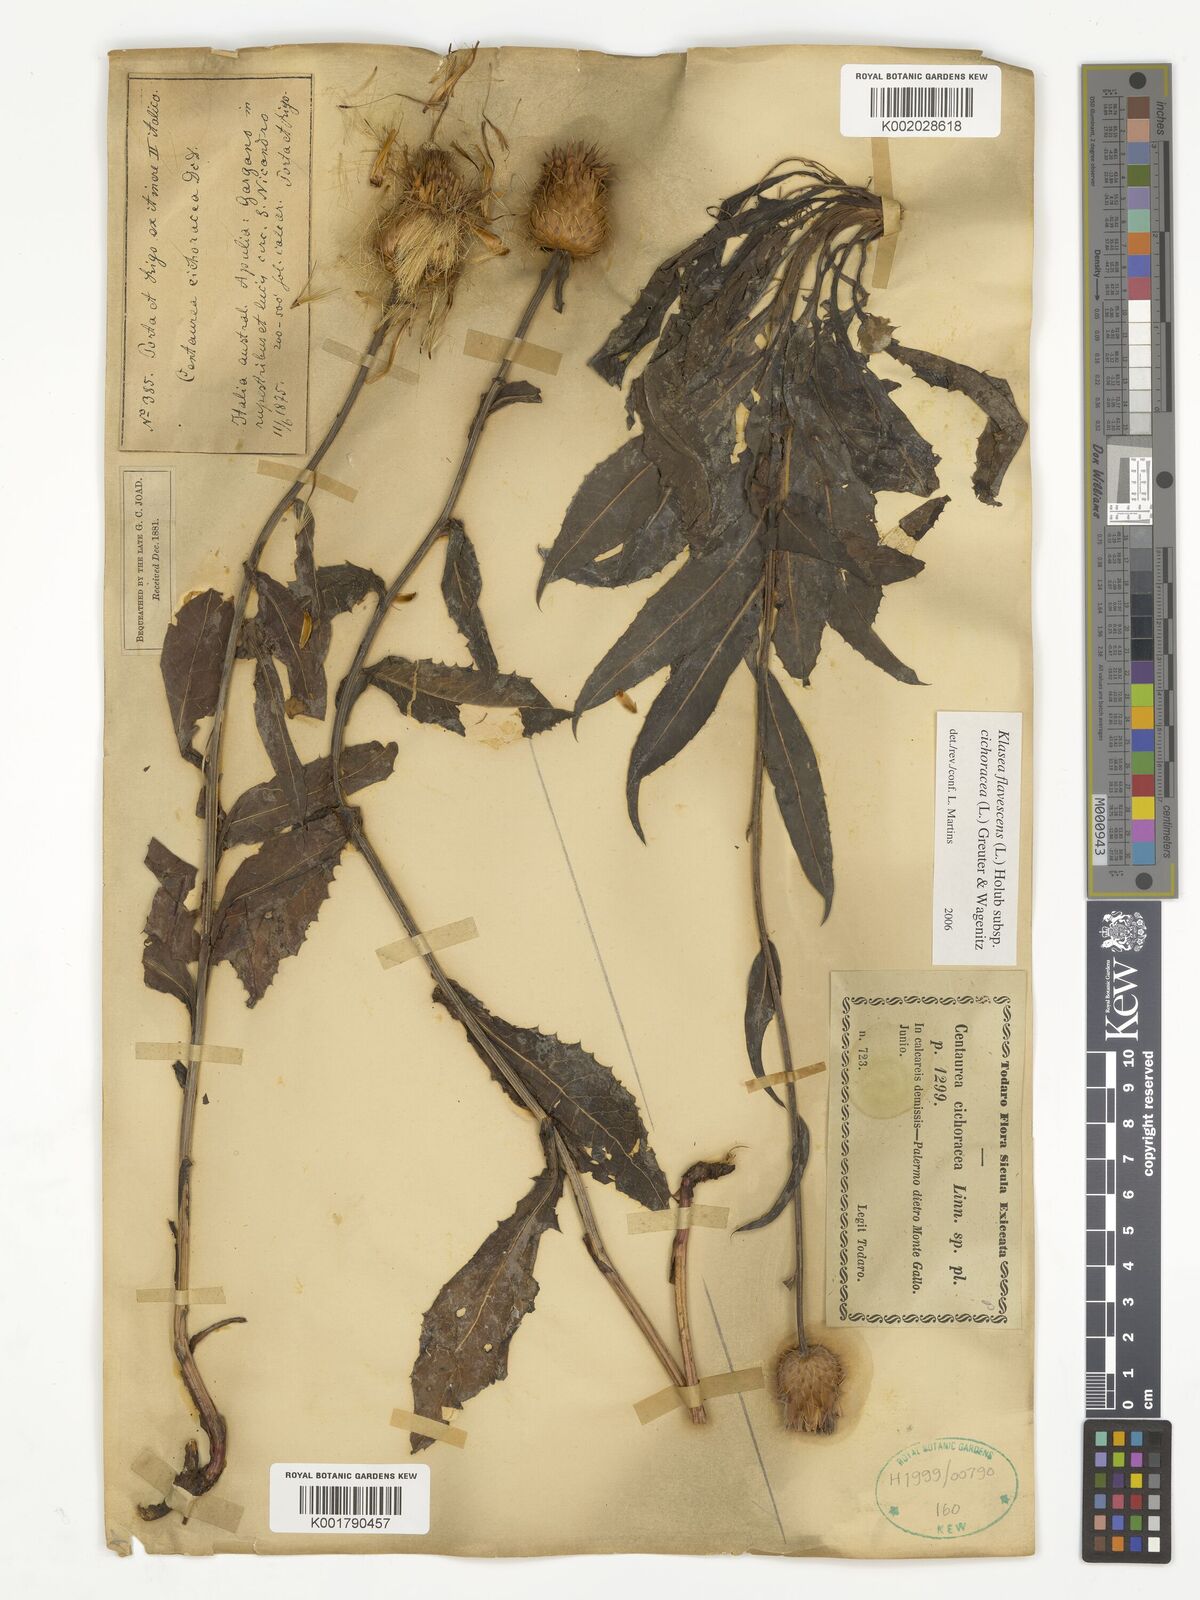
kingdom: Plantae
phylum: Tracheophyta
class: Magnoliopsida
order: Asterales
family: Asteraceae
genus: Klasea
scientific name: Klasea flavescens
